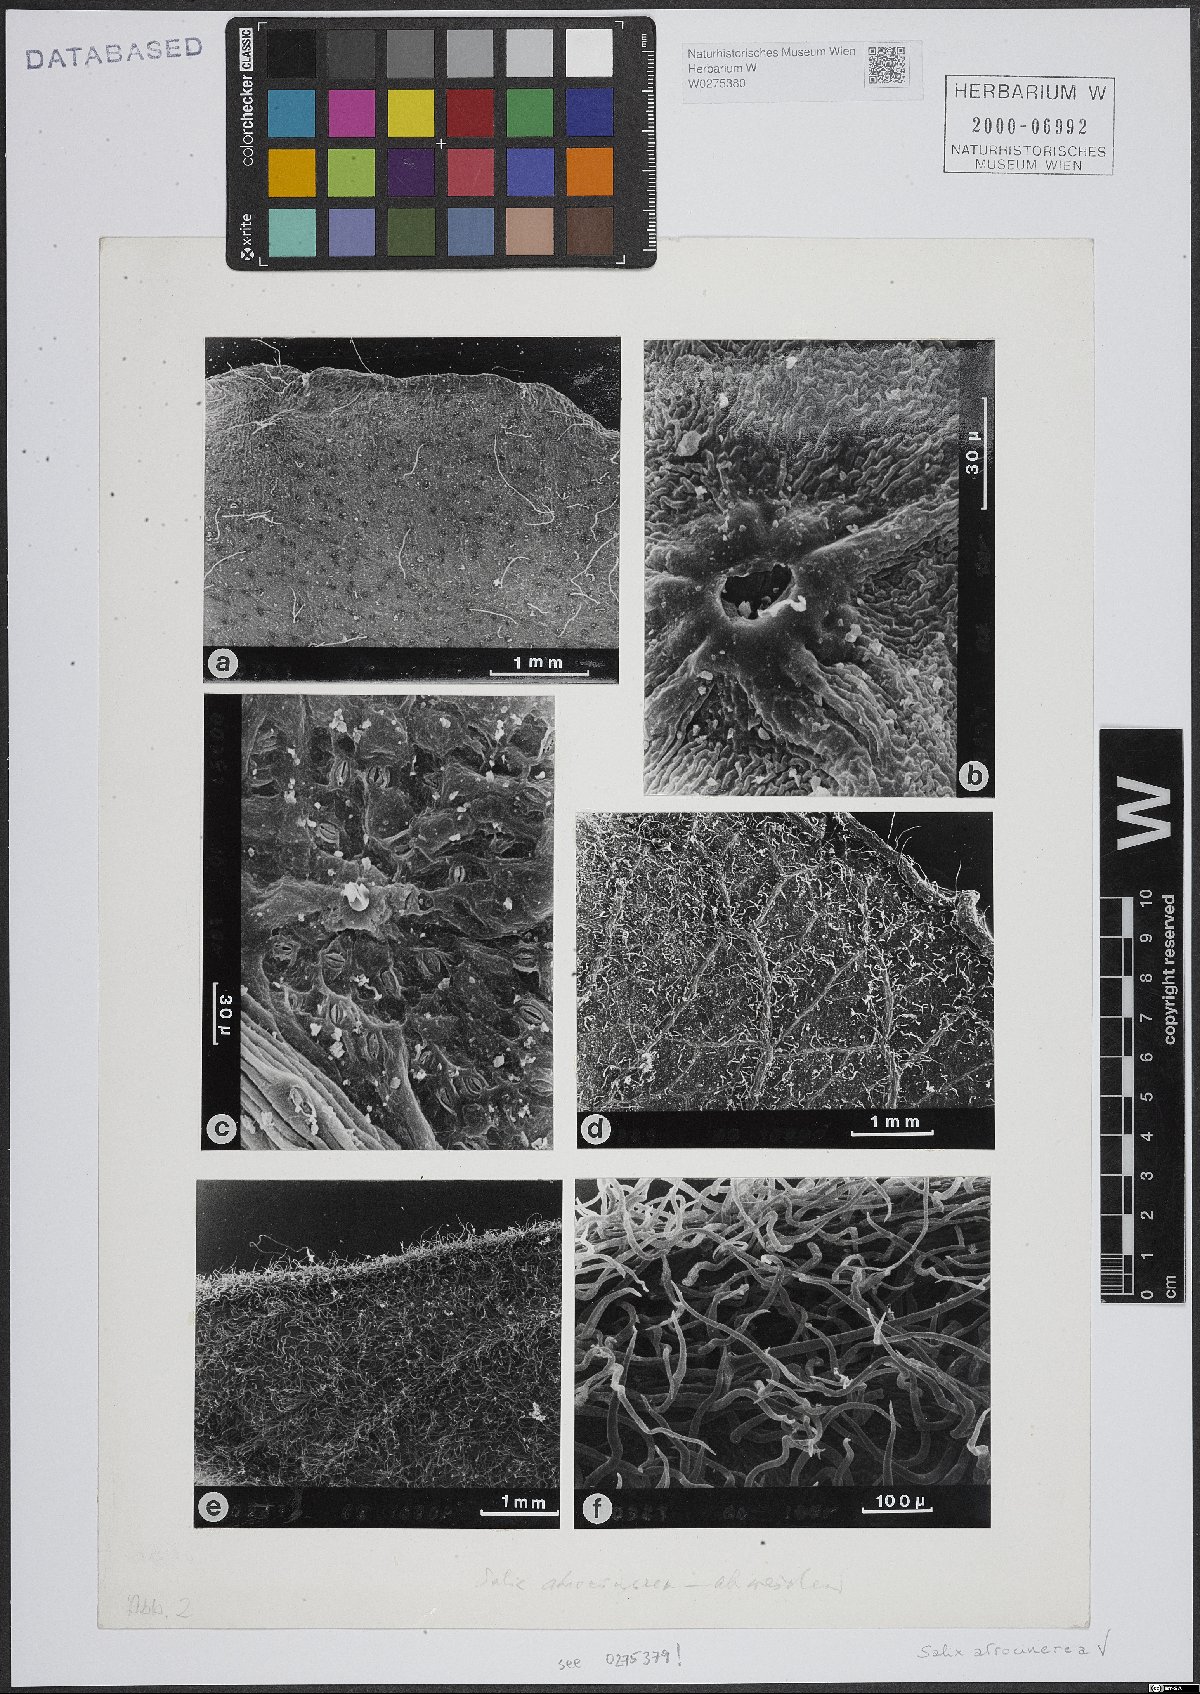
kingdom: Plantae
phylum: Tracheophyta
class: Magnoliopsida
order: Malpighiales
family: Salicaceae
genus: Salix
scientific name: Salix atrocinerea
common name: Rusty willow
